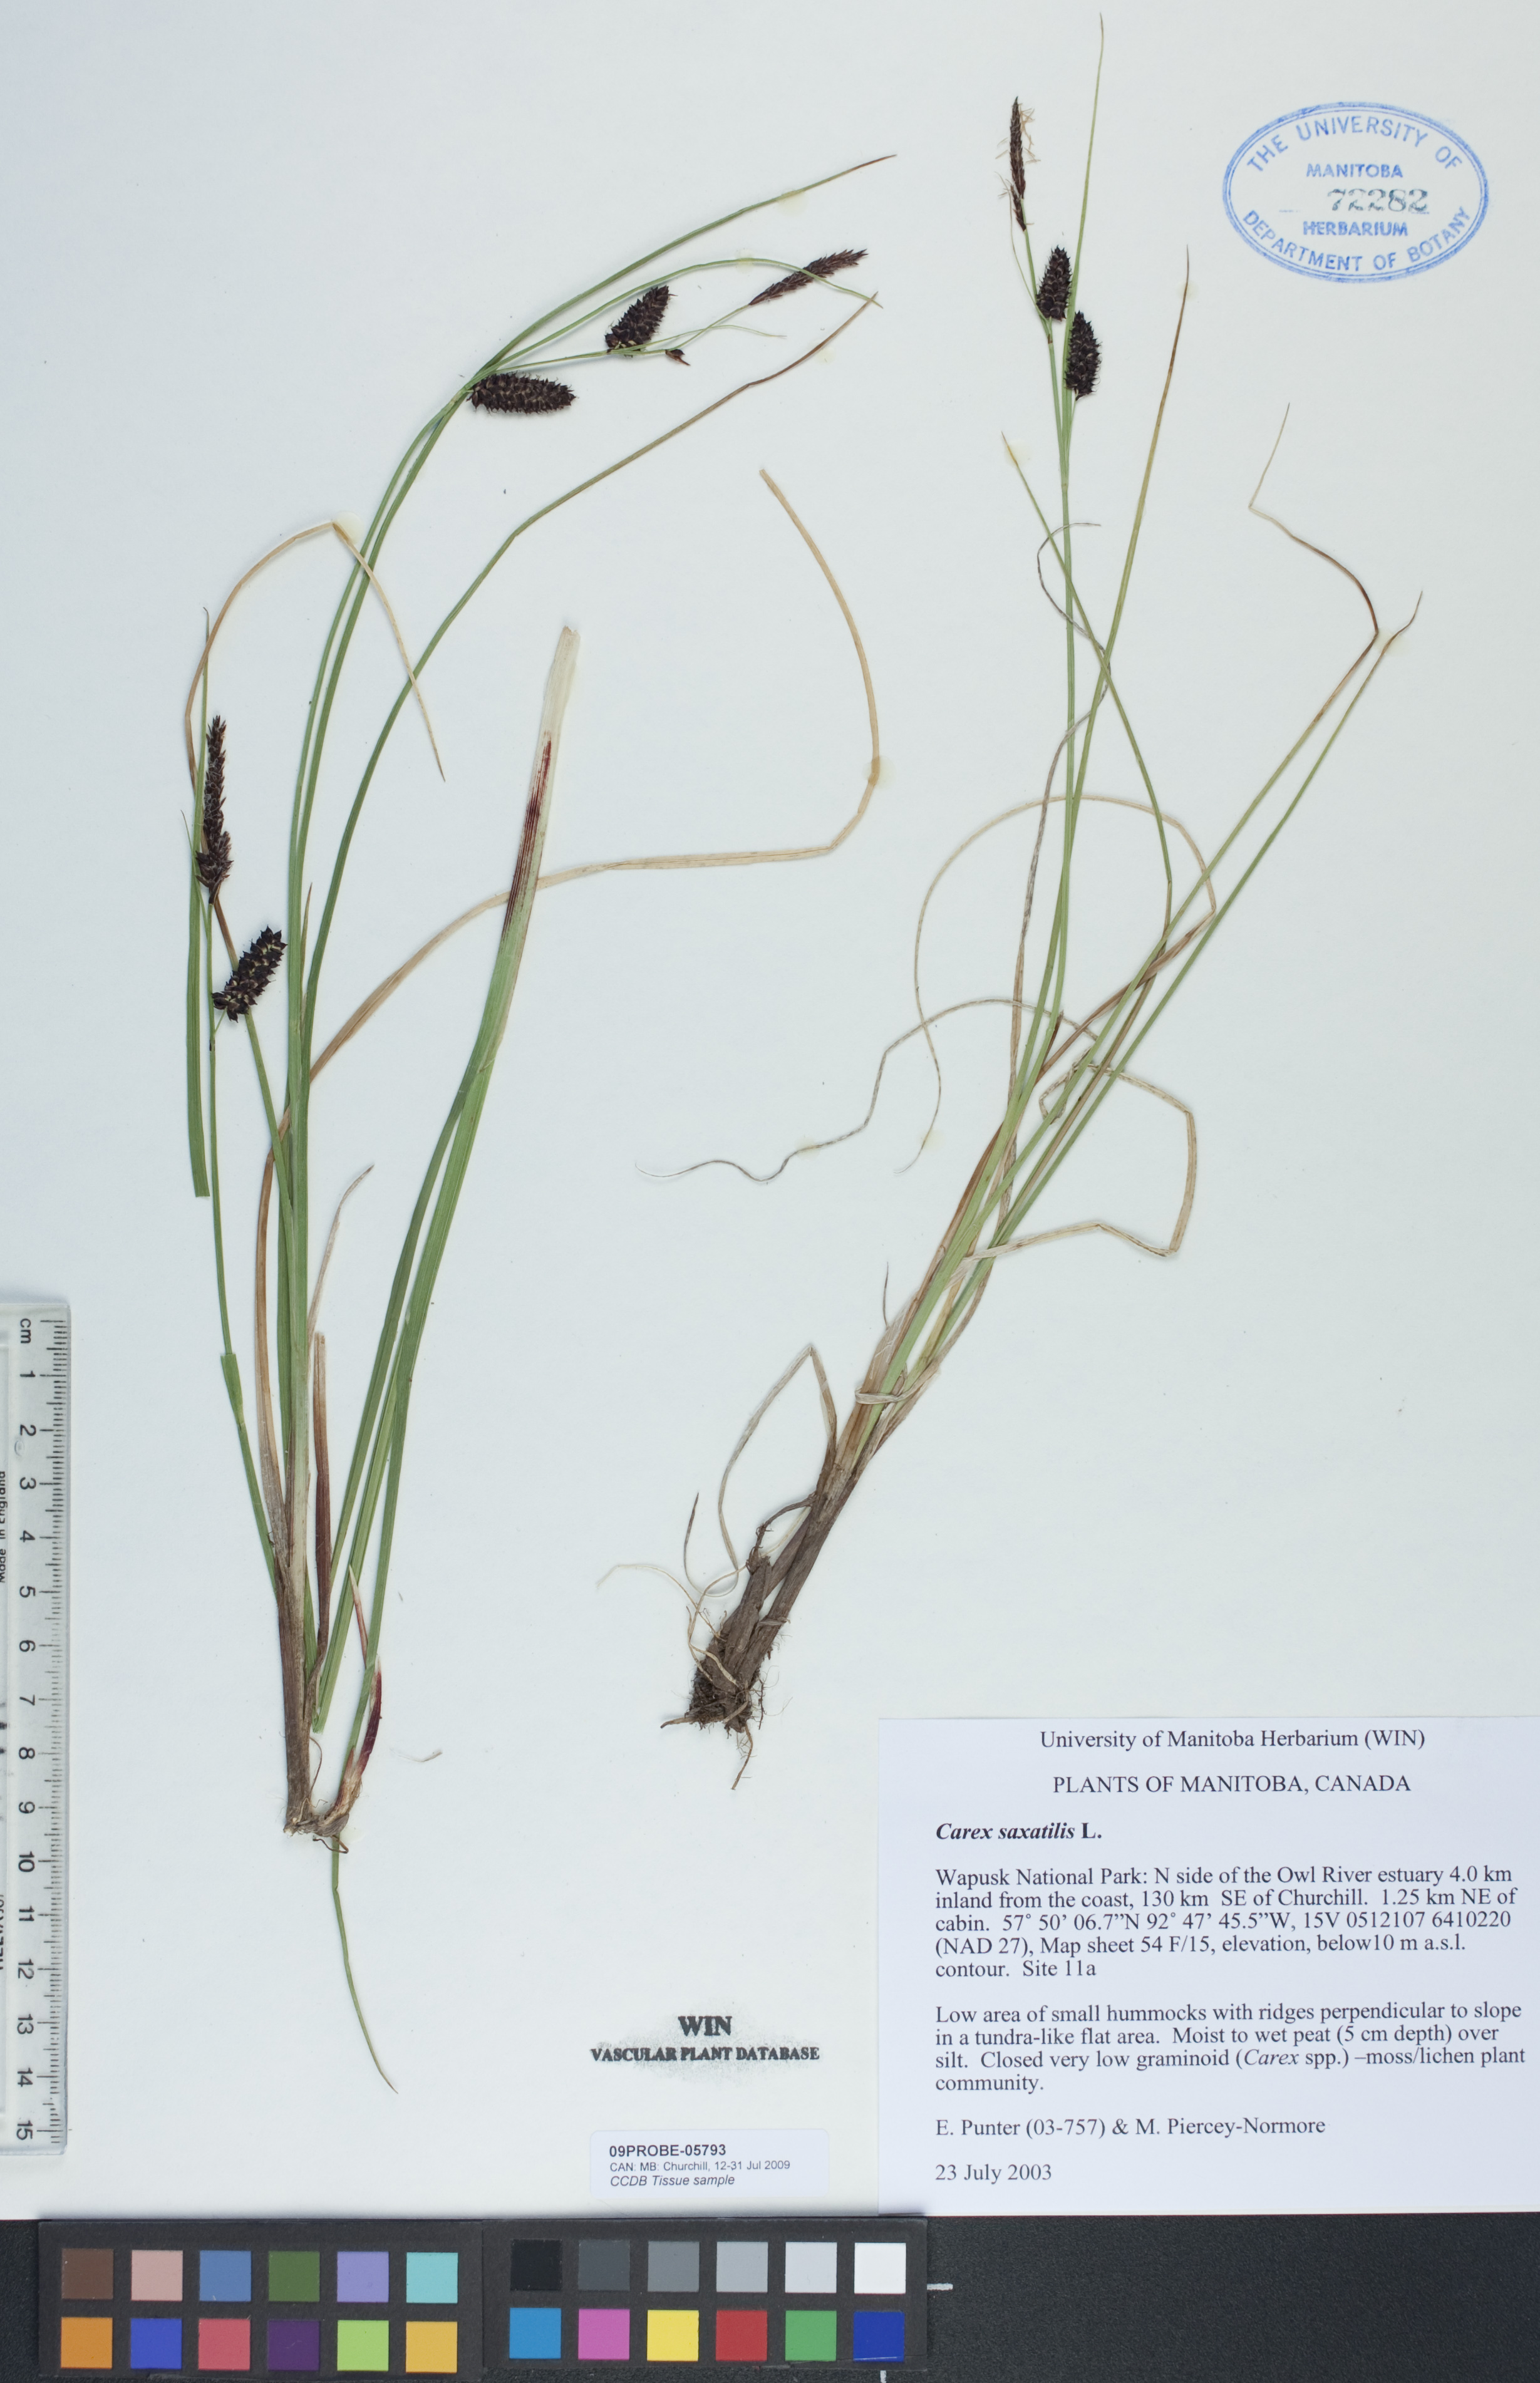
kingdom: Plantae
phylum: Tracheophyta
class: Liliopsida
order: Poales
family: Cyperaceae
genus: Carex
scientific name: Carex saxatilis
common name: Russet sedge
